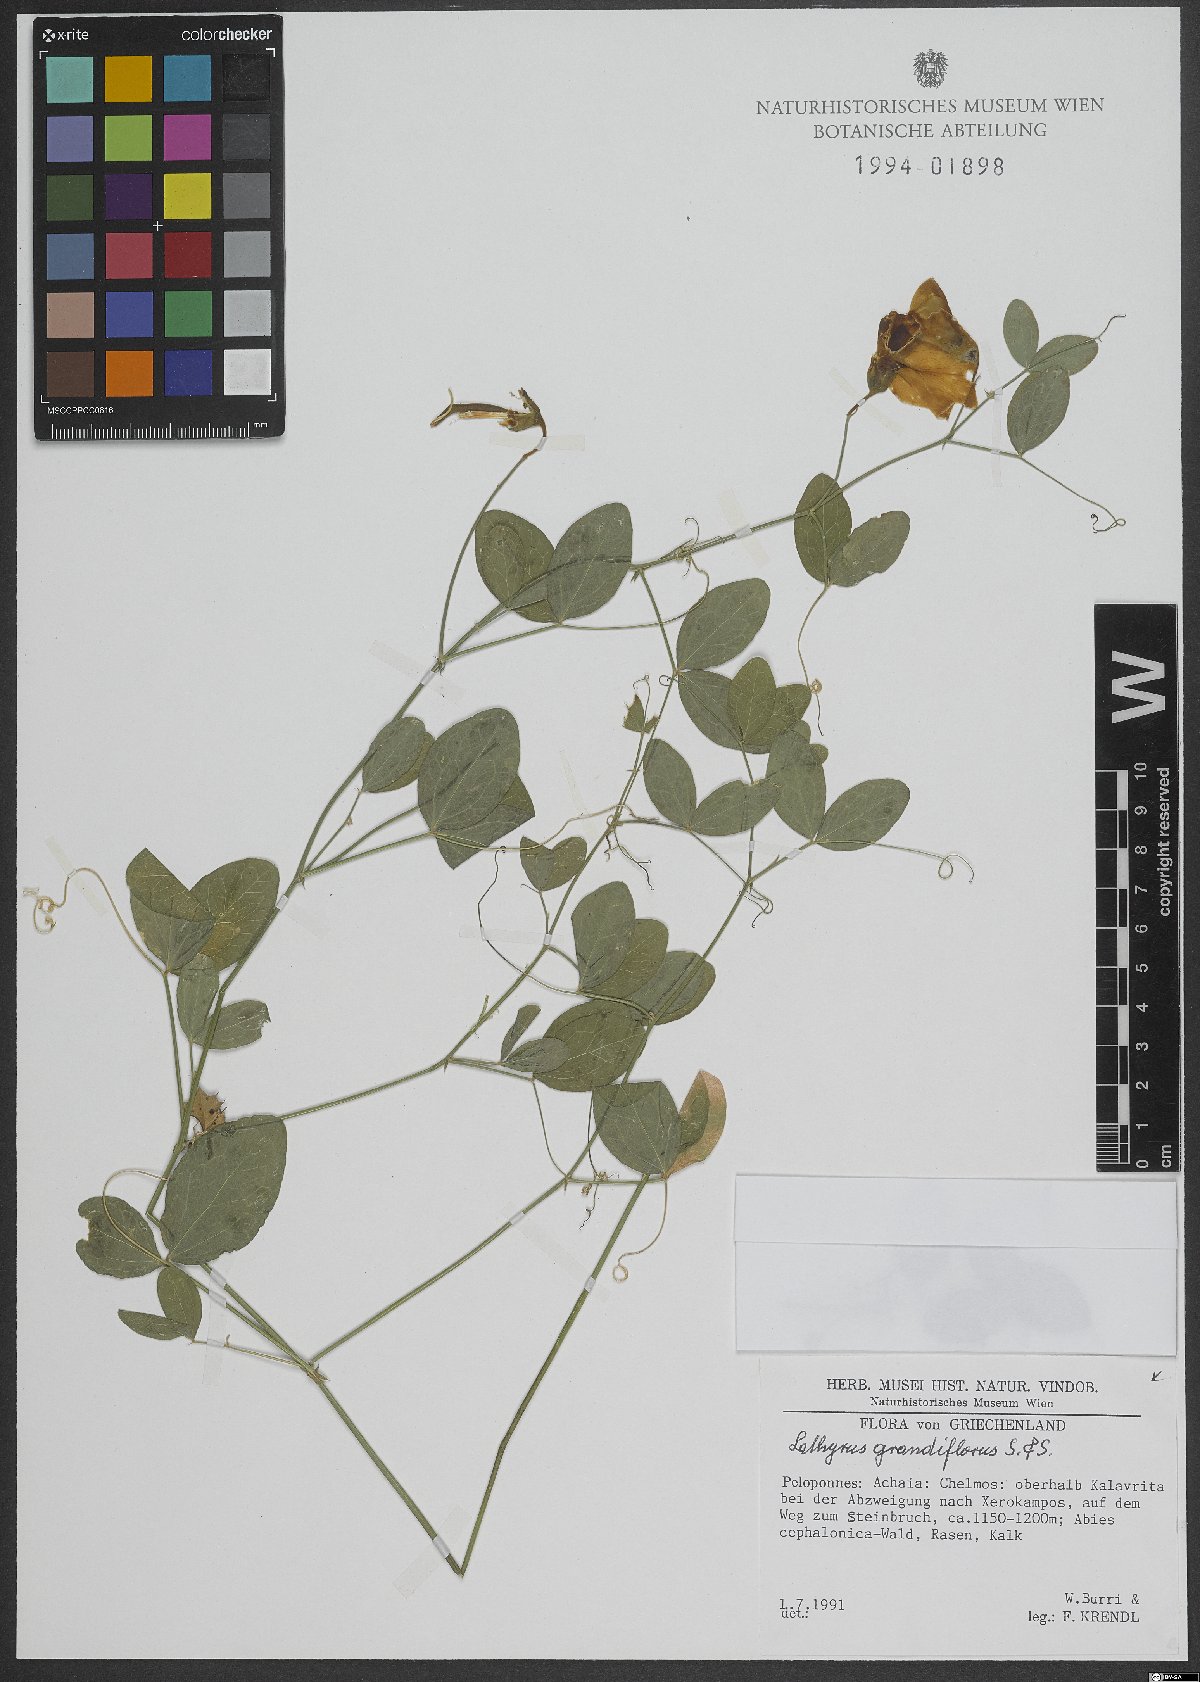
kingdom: Plantae
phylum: Tracheophyta
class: Magnoliopsida
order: Fabales
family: Fabaceae
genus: Lathyrus
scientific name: Lathyrus grandiflorus
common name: Two-flowered everlasting-pea
